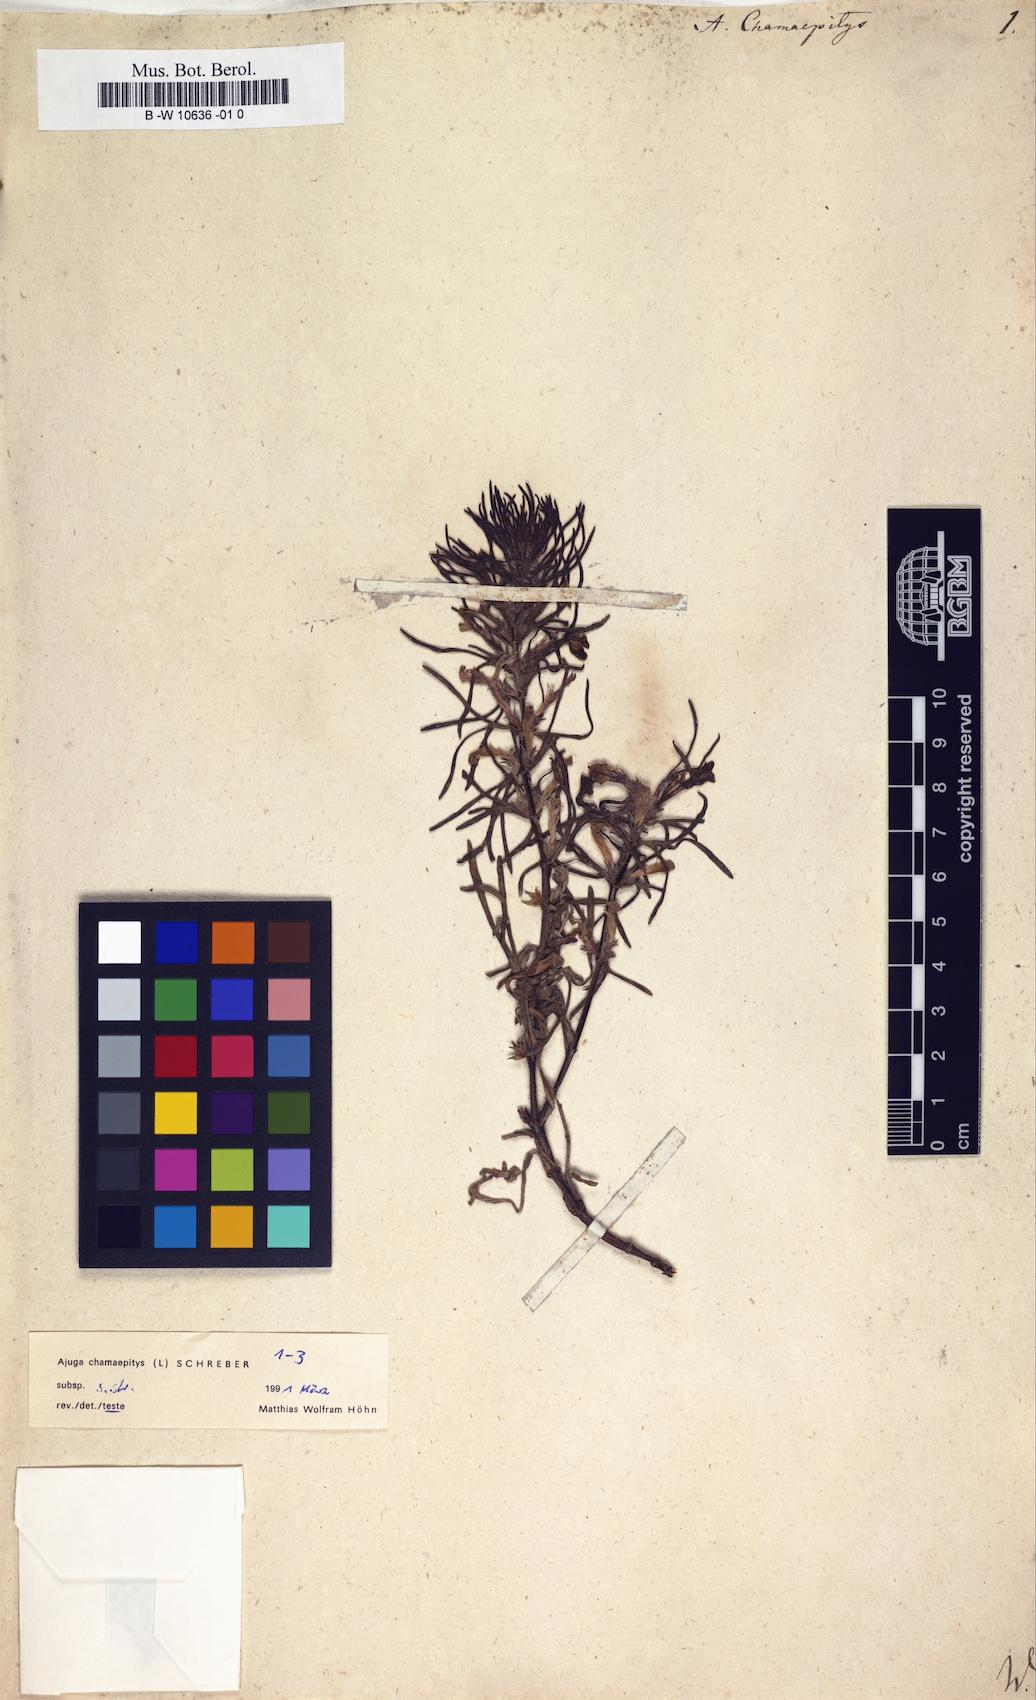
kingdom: Plantae
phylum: Tracheophyta
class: Magnoliopsida
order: Lamiales
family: Lamiaceae
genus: Ajuga
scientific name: Ajuga chamaepitys
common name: Ground-pine
